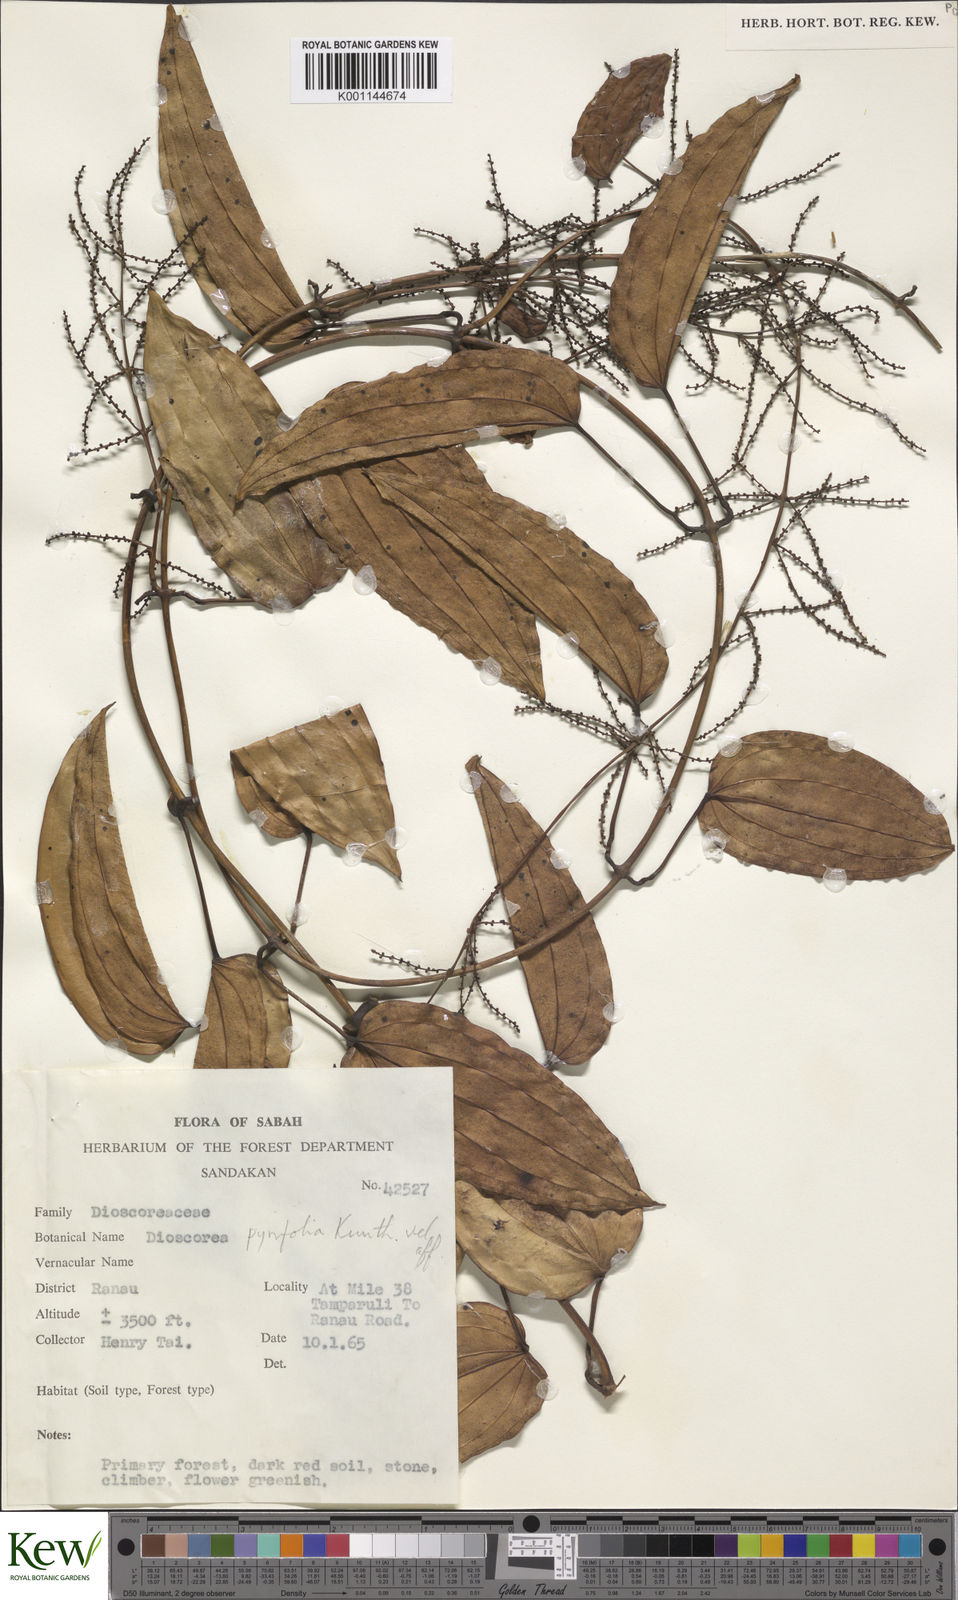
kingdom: Plantae
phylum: Tracheophyta
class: Liliopsida
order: Dioscoreales
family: Dioscoreaceae
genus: Dioscorea
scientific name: Dioscorea
